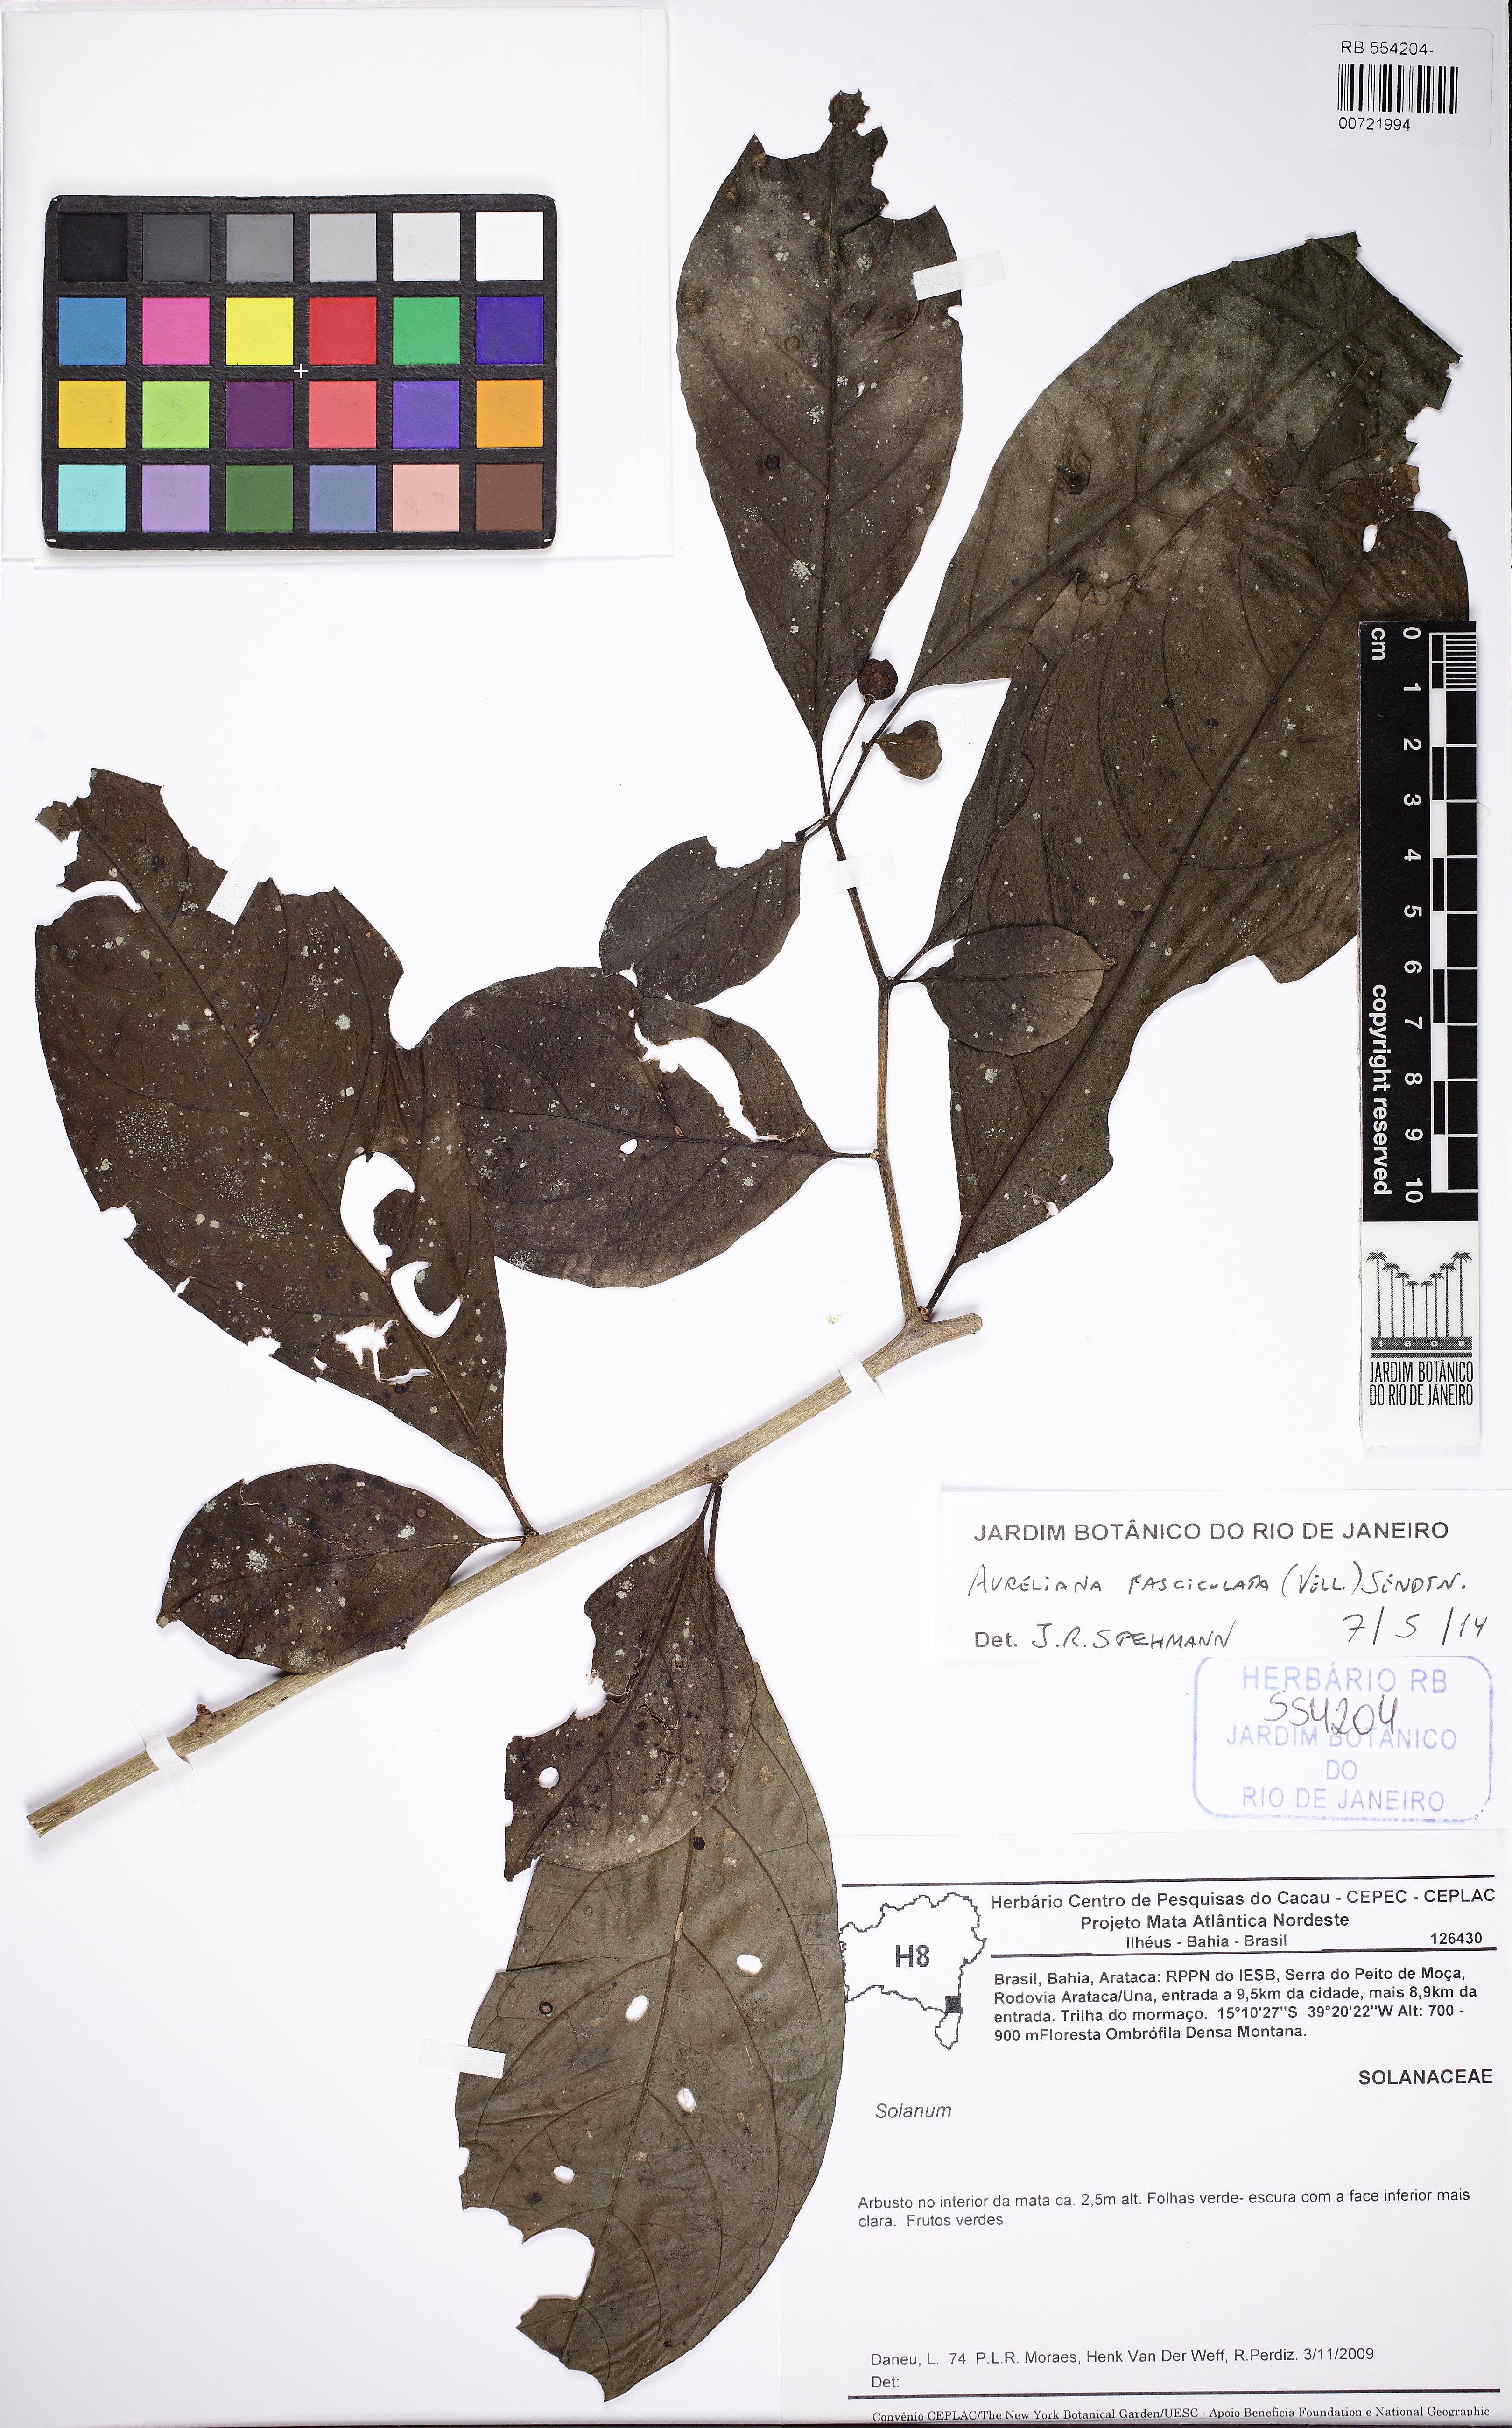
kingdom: Plantae
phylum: Tracheophyta
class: Magnoliopsida
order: Solanales
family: Solanaceae
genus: Athenaea
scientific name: Athenaea fasciculata
